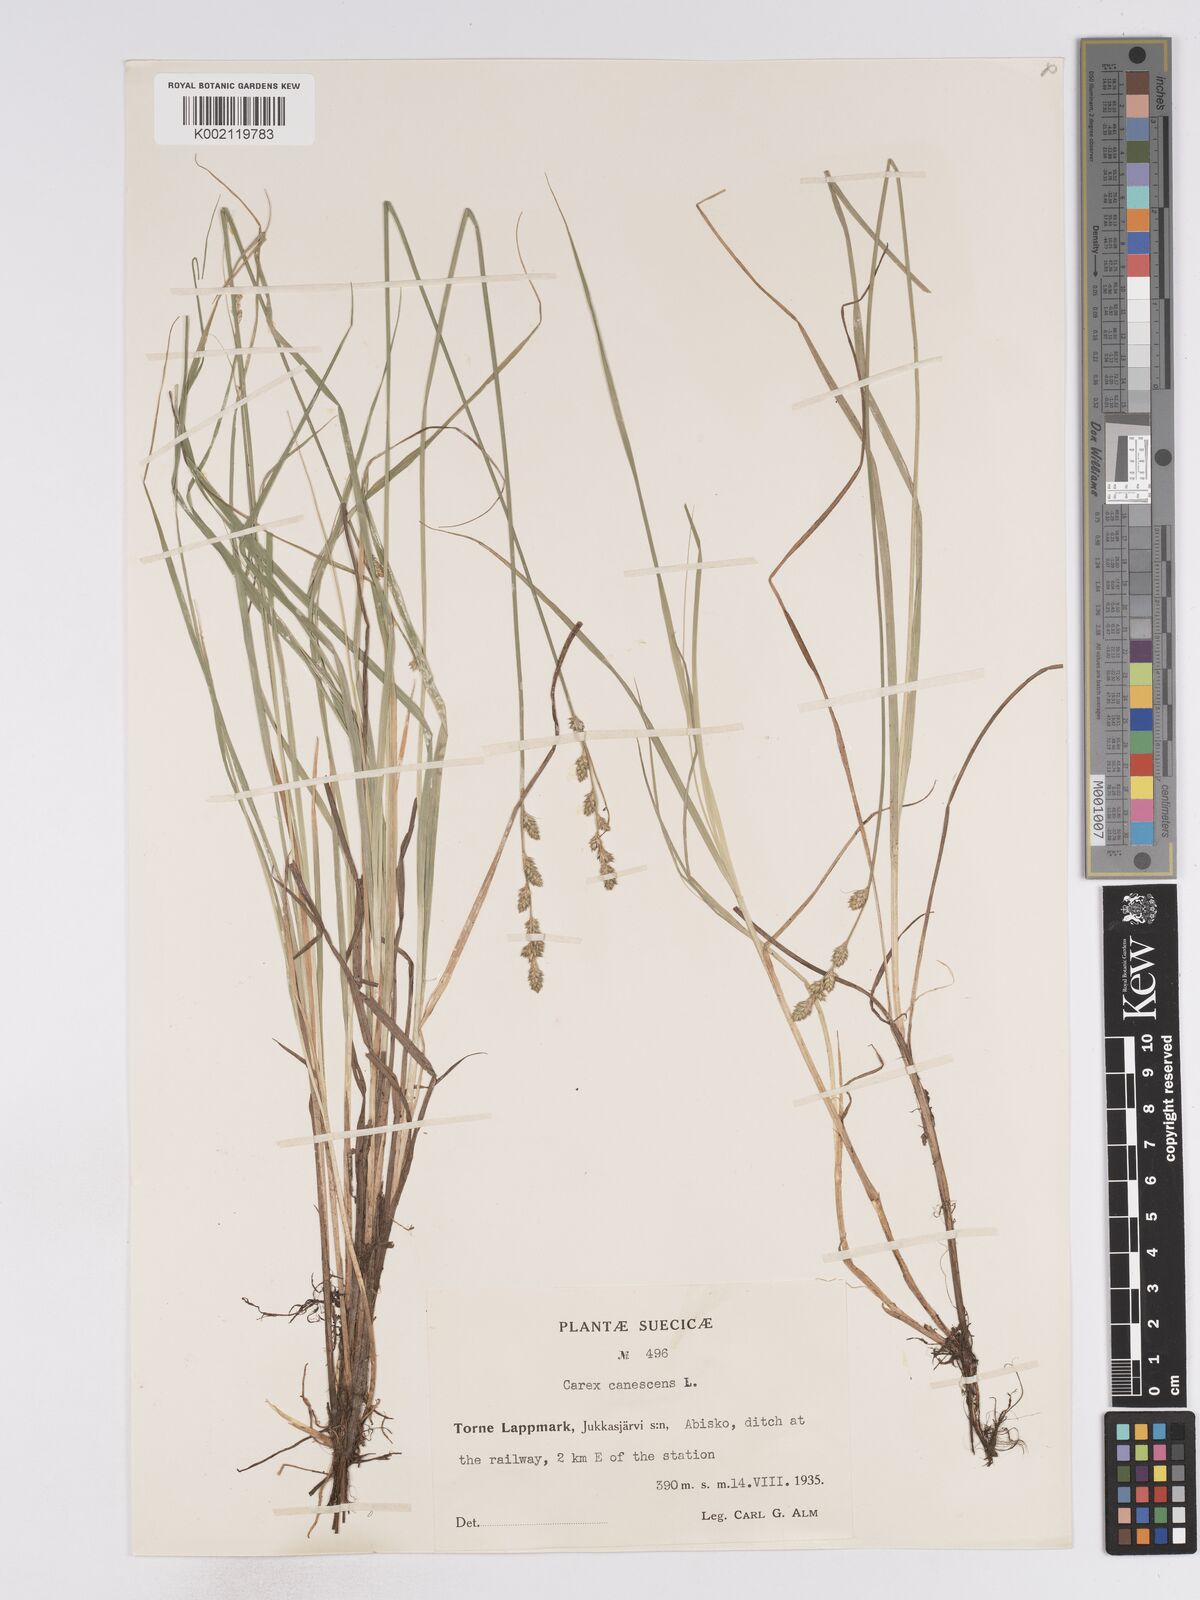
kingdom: Plantae
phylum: Tracheophyta
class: Liliopsida
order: Poales
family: Cyperaceae
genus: Carex
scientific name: Carex curta
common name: White sedge
